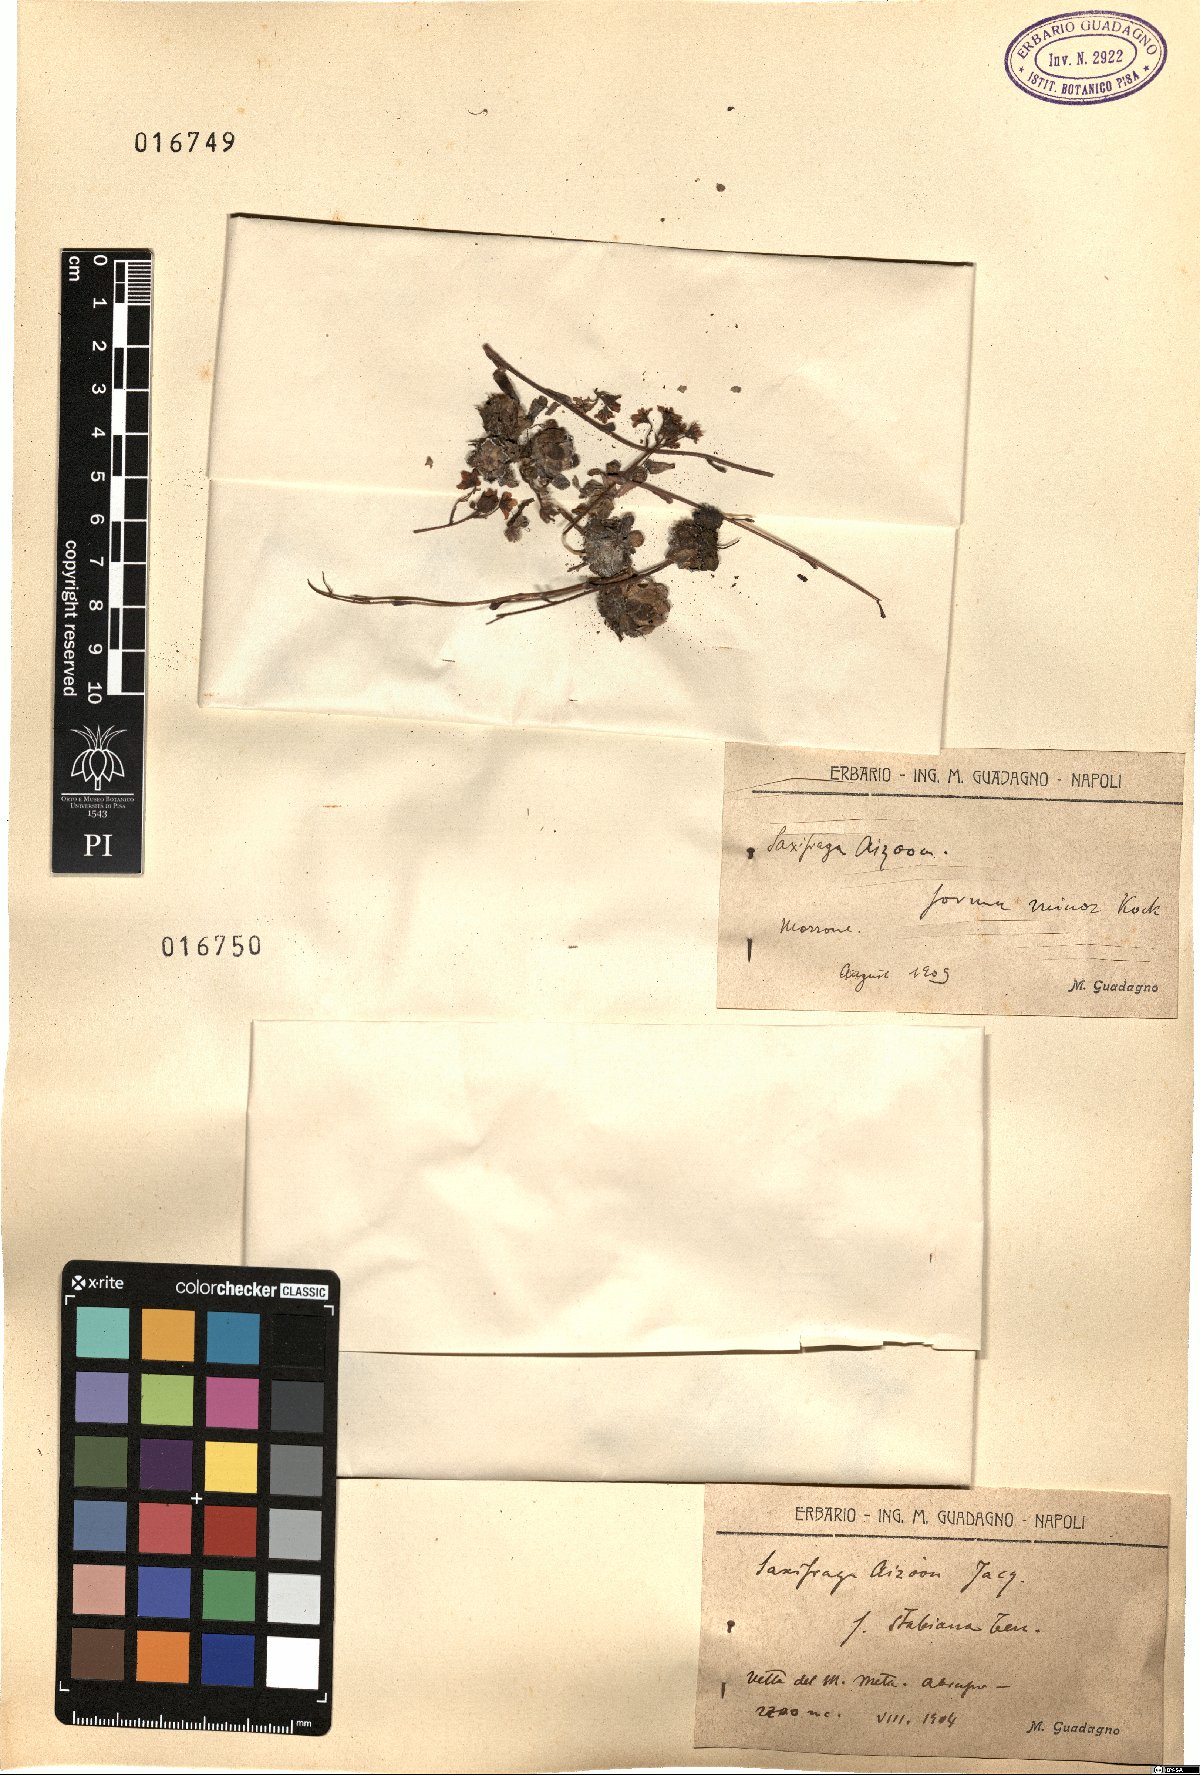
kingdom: Plantae
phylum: Tracheophyta
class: Magnoliopsida
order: Saxifragales
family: Saxifragaceae
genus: Saxifraga
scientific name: Saxifraga paniculata
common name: Livelong saxifrage
